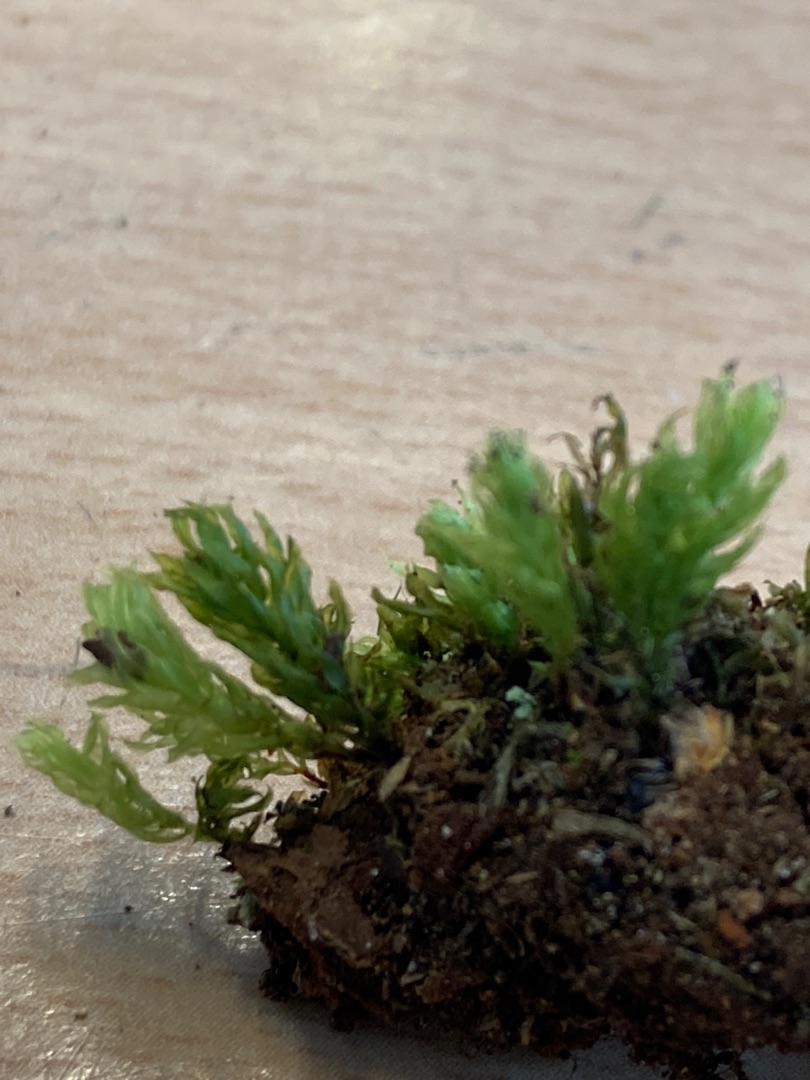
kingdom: Plantae
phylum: Bryophyta
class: Bryopsida
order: Bryales
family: Mniaceae
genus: Mnium
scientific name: Mnium hornum
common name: Brunfiltet stjernemos
